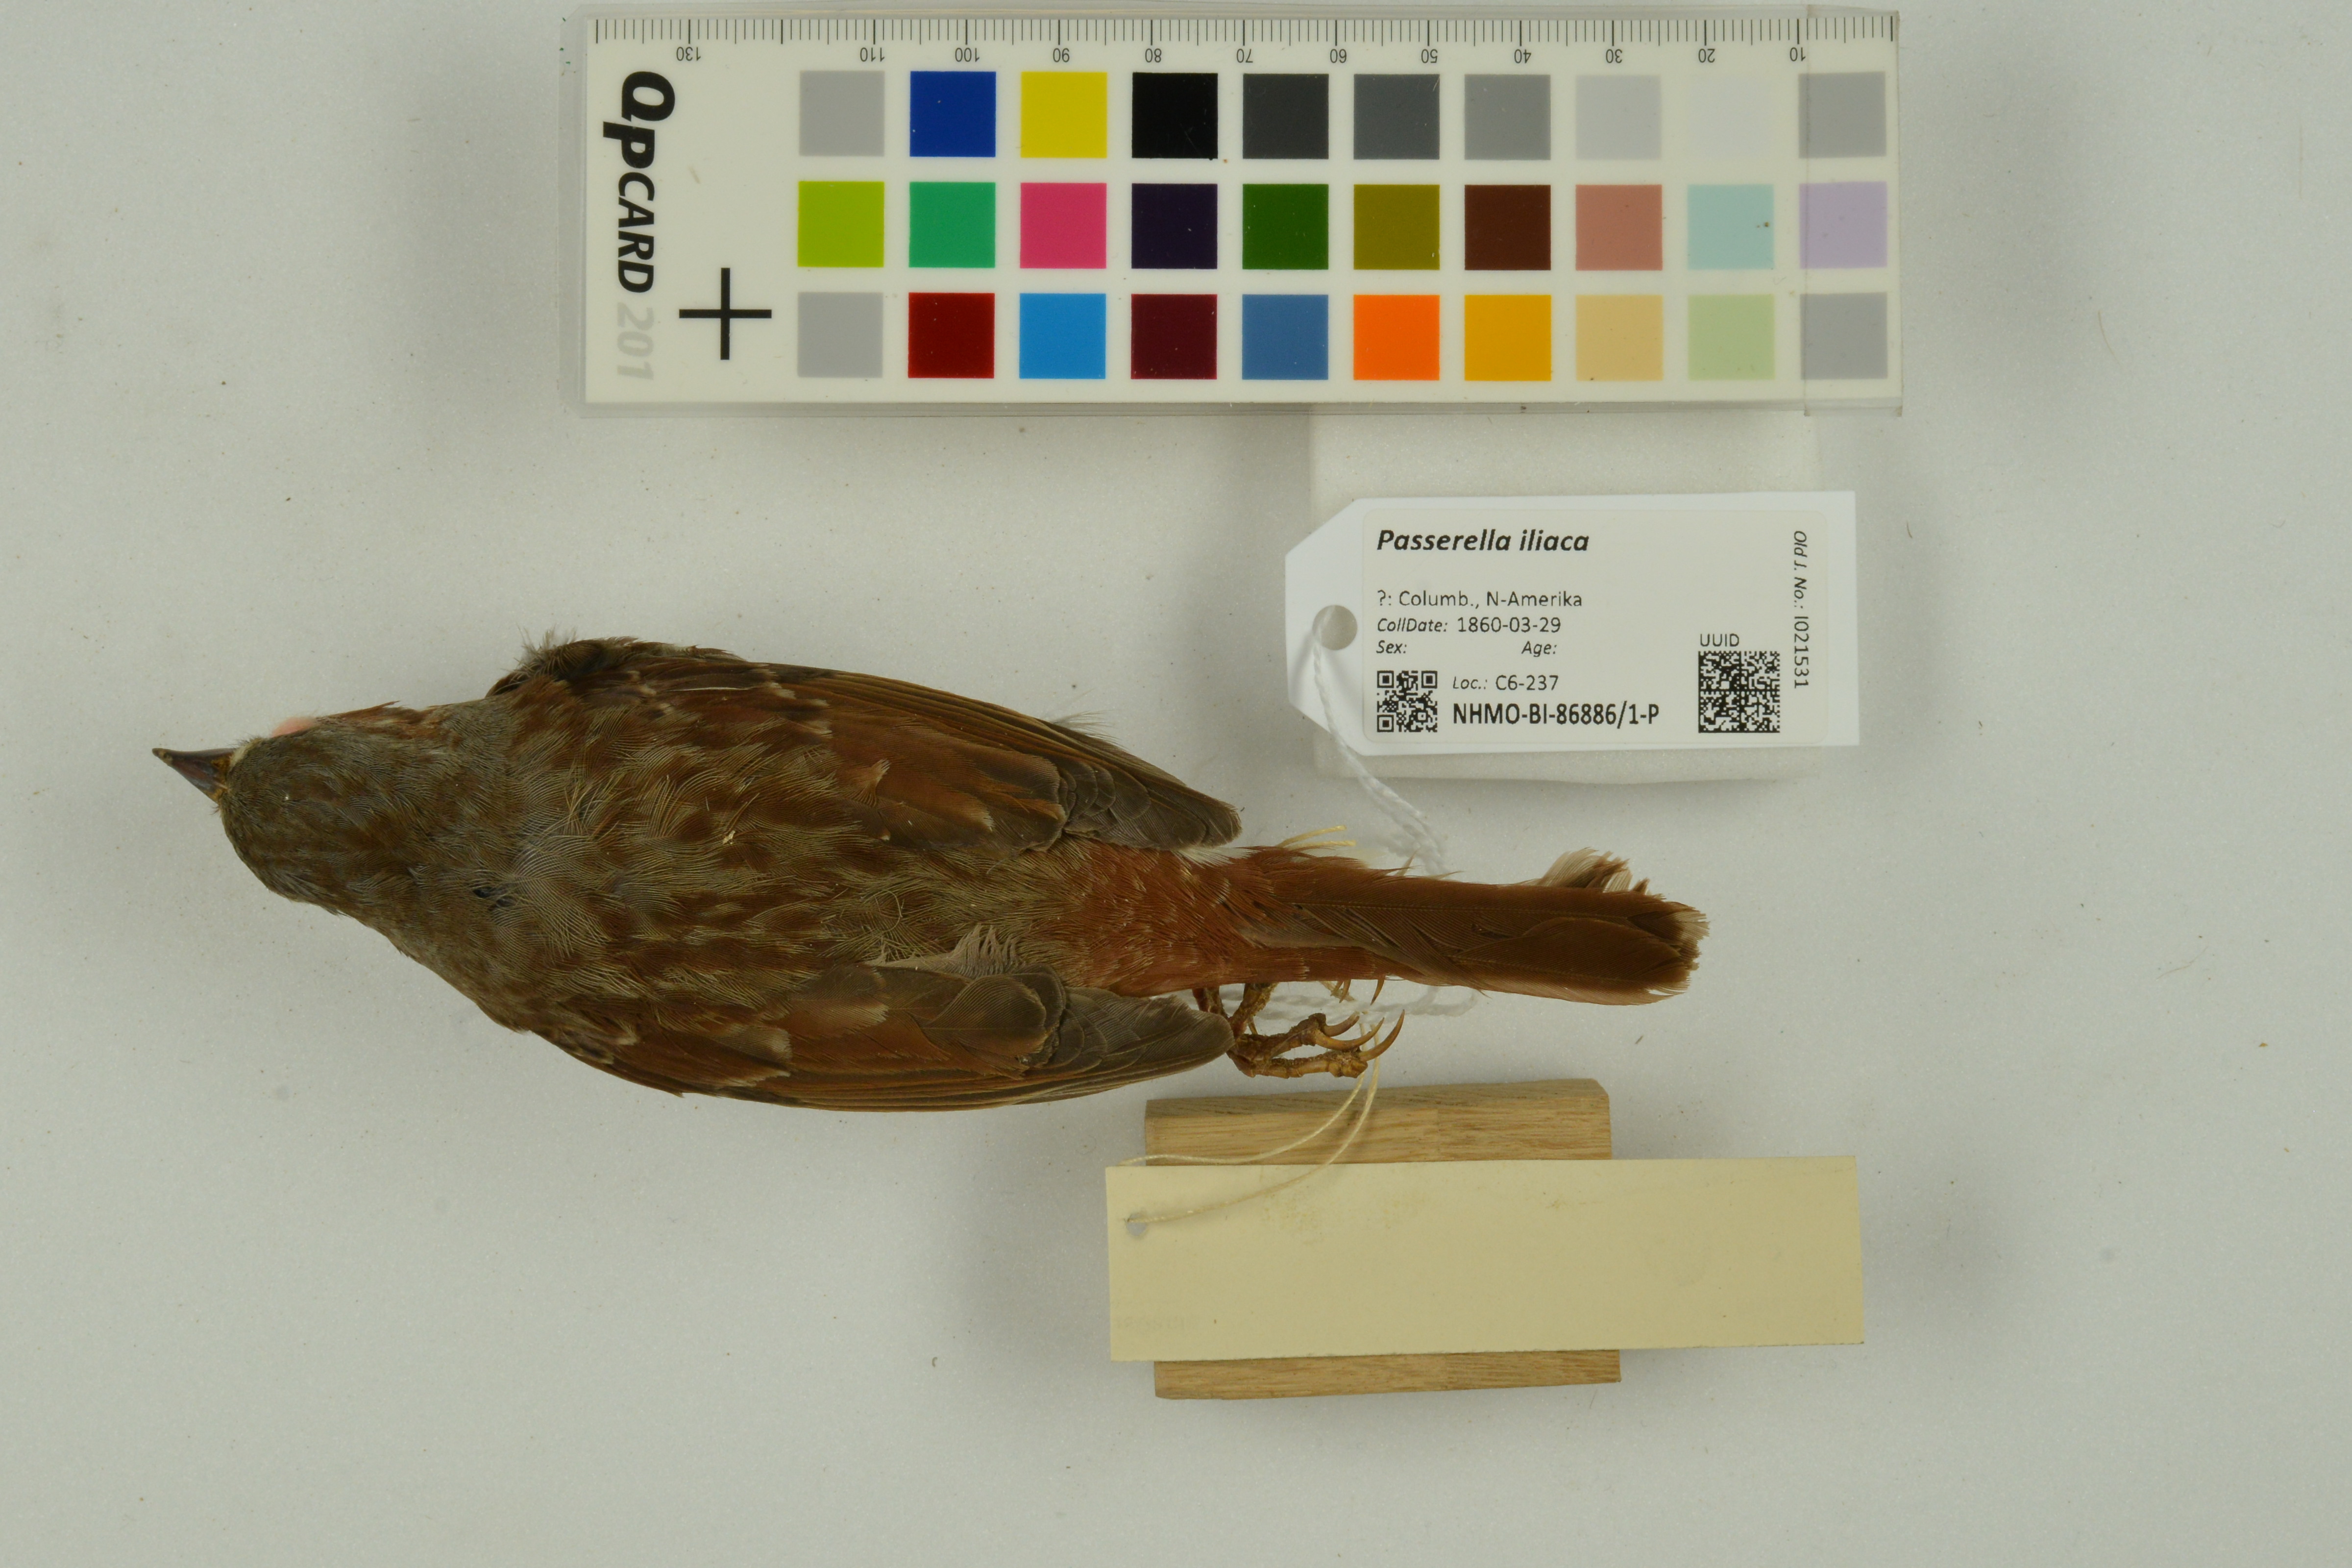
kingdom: Animalia
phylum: Chordata
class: Aves
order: Passeriformes
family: Passerellidae
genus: Passerella
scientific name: Passerella iliaca
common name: Fox sparrow
